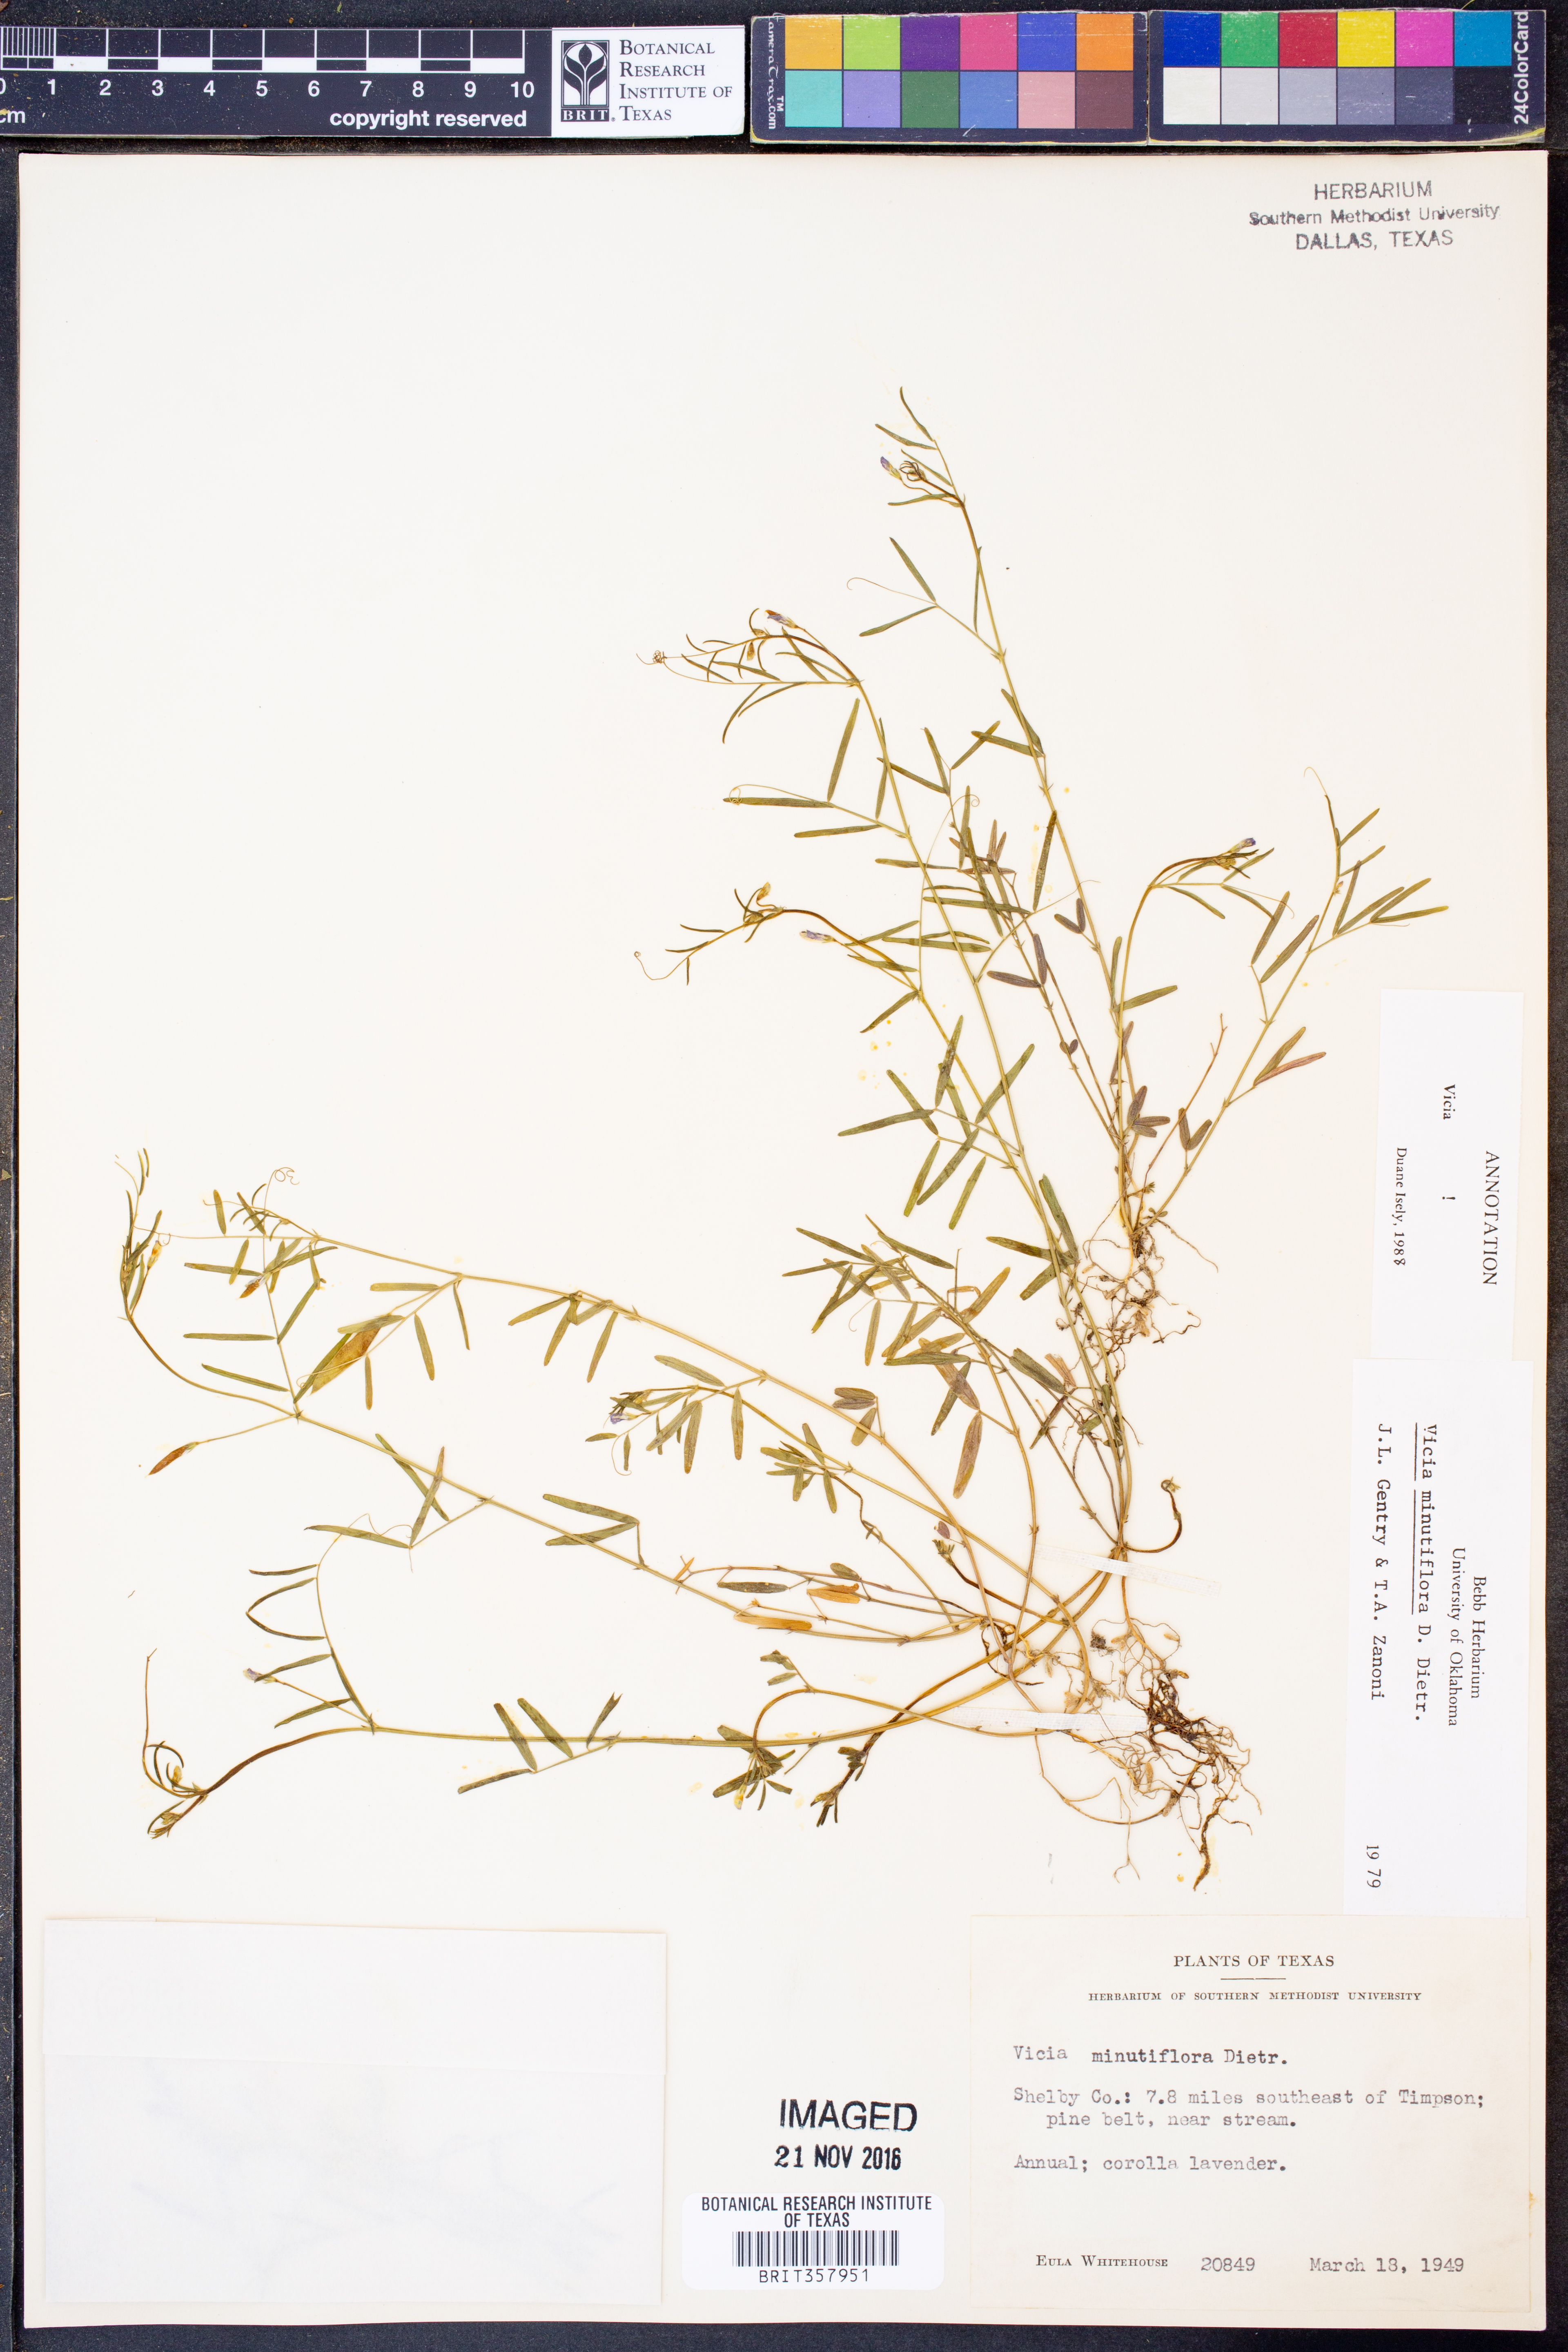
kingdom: Plantae
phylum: Tracheophyta
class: Magnoliopsida
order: Fabales
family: Fabaceae
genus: Vicia
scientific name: Vicia minutiflora
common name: Pygmy-flower vetch
